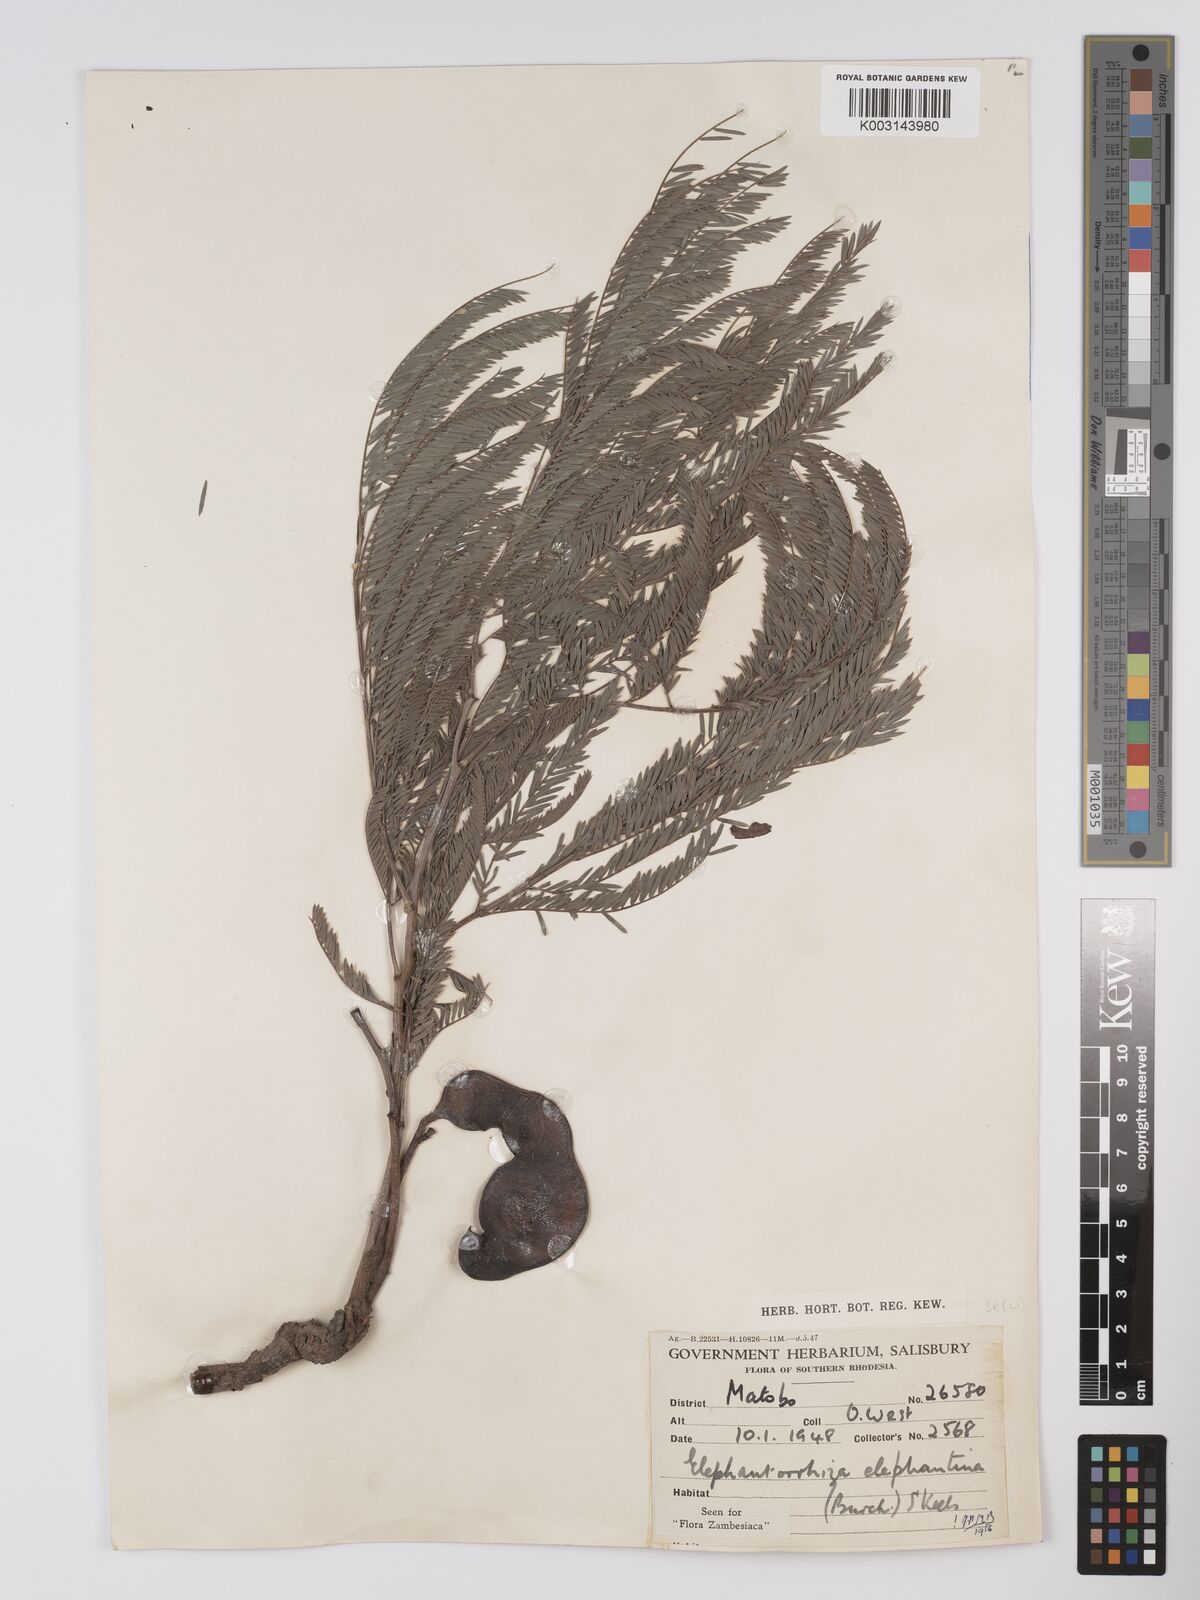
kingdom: Plantae
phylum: Tracheophyta
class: Magnoliopsida
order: Fabales
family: Fabaceae
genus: Elephantorrhiza
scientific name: Elephantorrhiza elephantina
